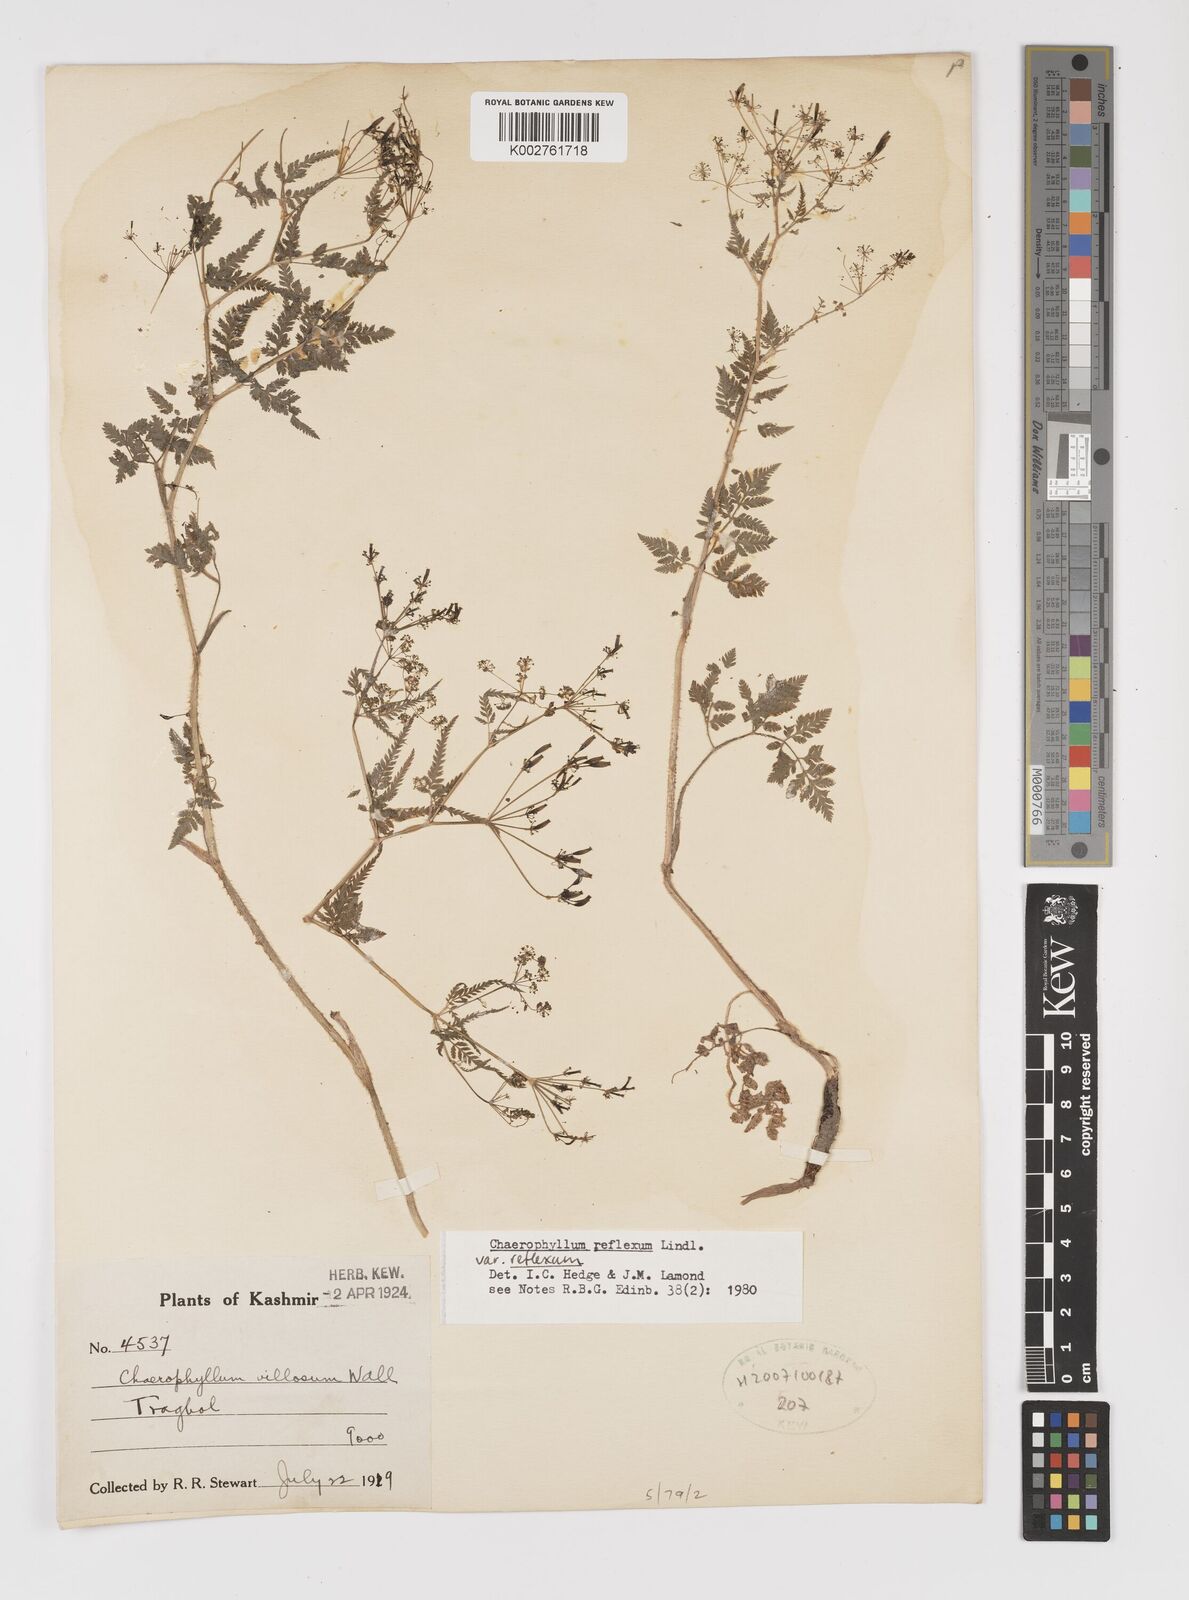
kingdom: Plantae
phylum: Tracheophyta
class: Magnoliopsida
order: Apiales
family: Apiaceae
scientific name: Apiaceae
